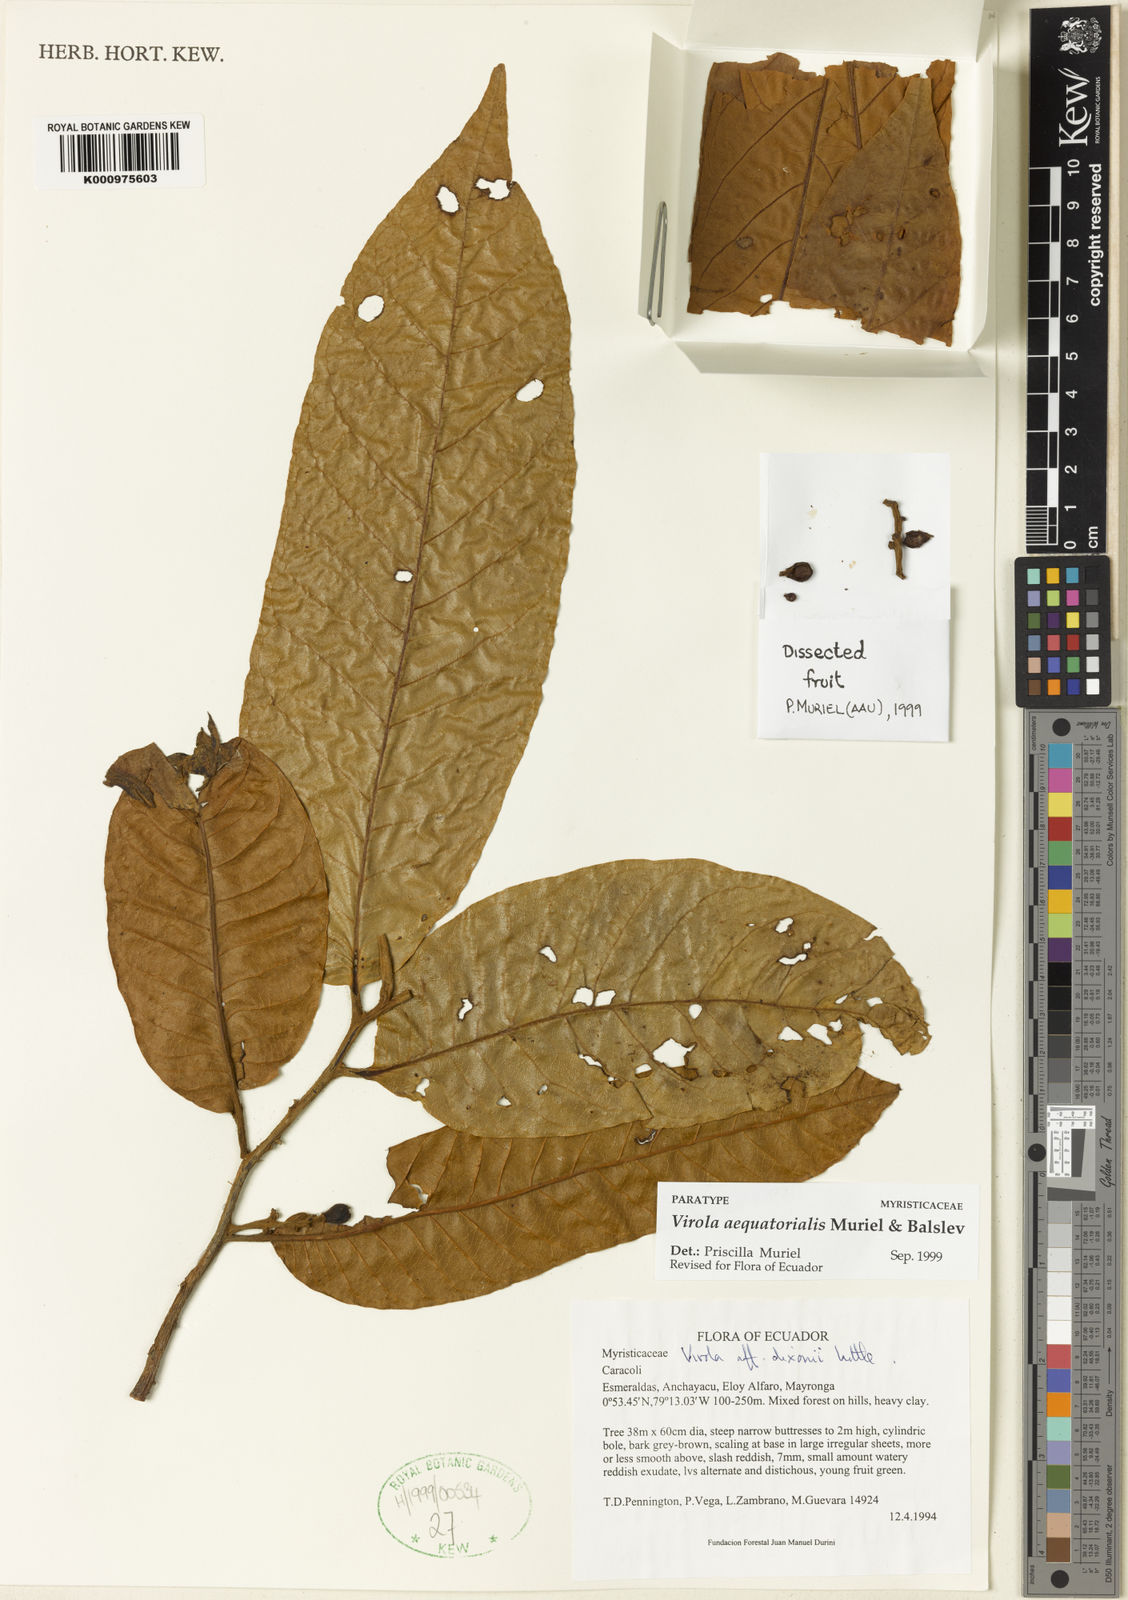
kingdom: Plantae
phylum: Tracheophyta
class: Magnoliopsida
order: Magnoliales
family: Myristicaceae
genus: Virola
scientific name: Virola aequatorialis
